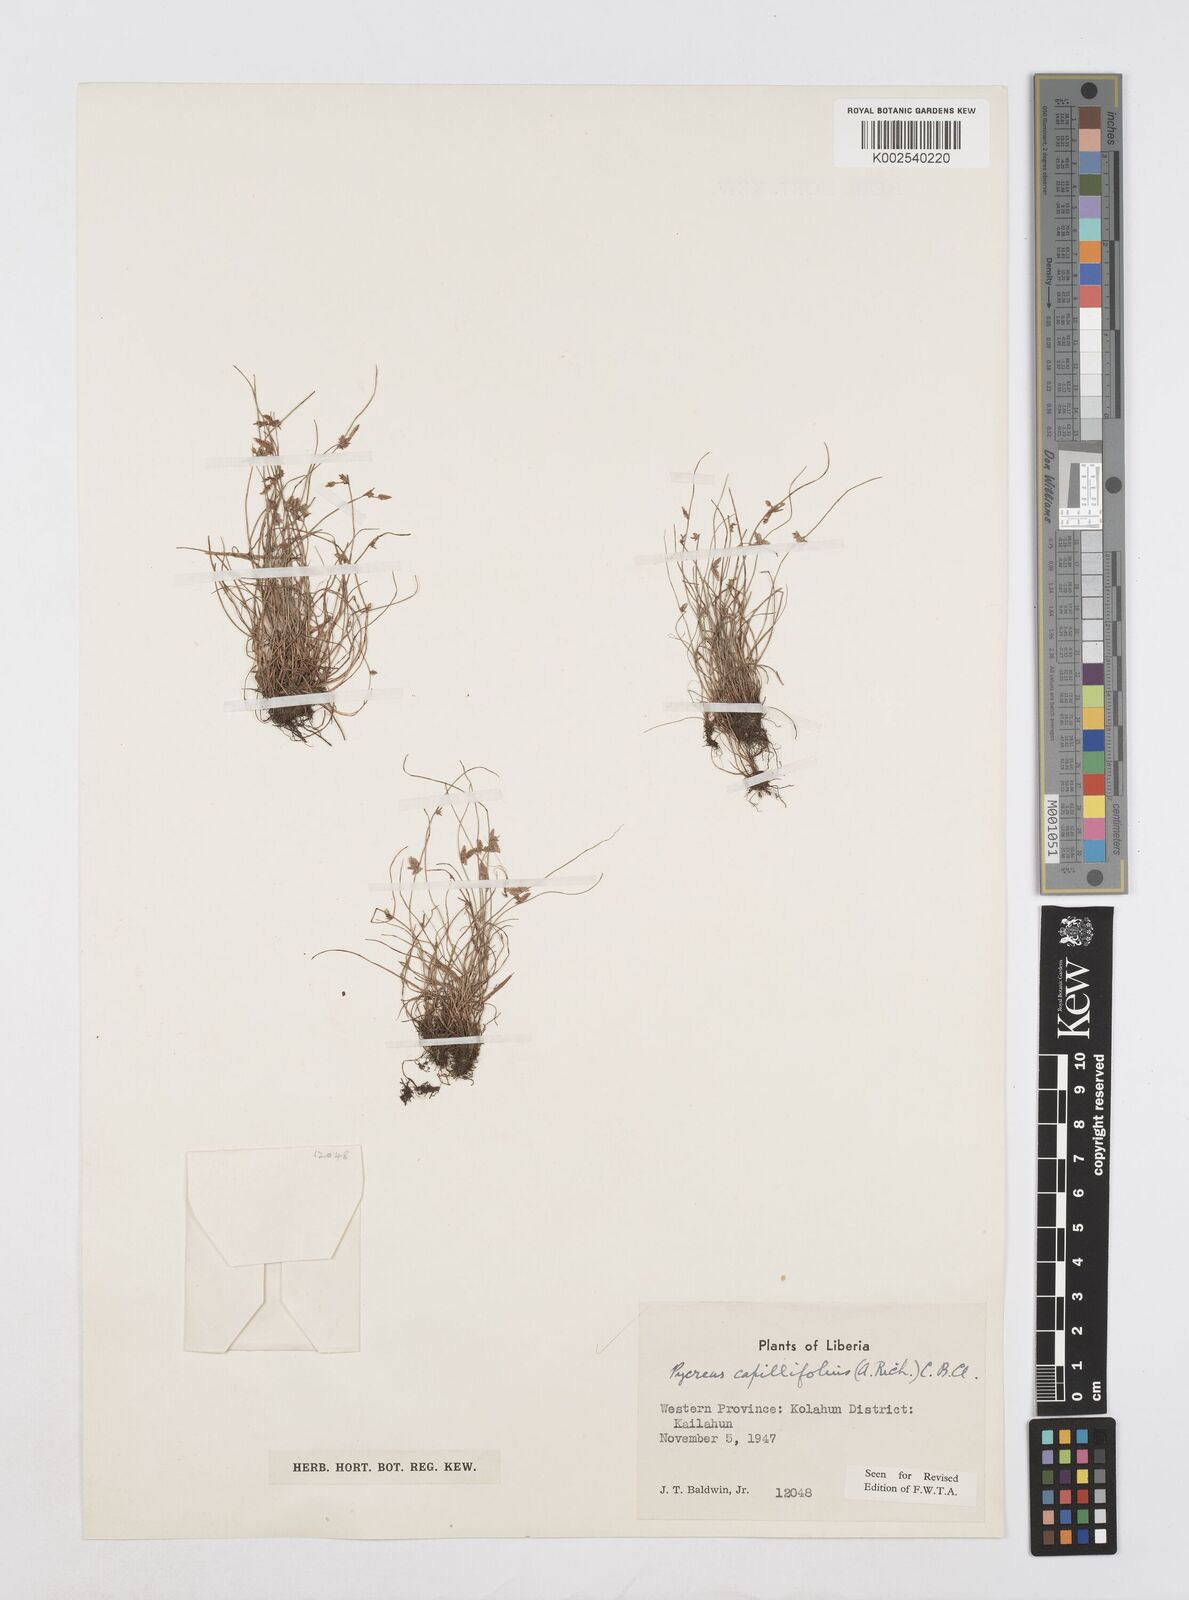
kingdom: Plantae
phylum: Tracheophyta
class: Liliopsida
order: Poales
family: Cyperaceae
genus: Cyperus
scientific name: Cyperus capillifolius
